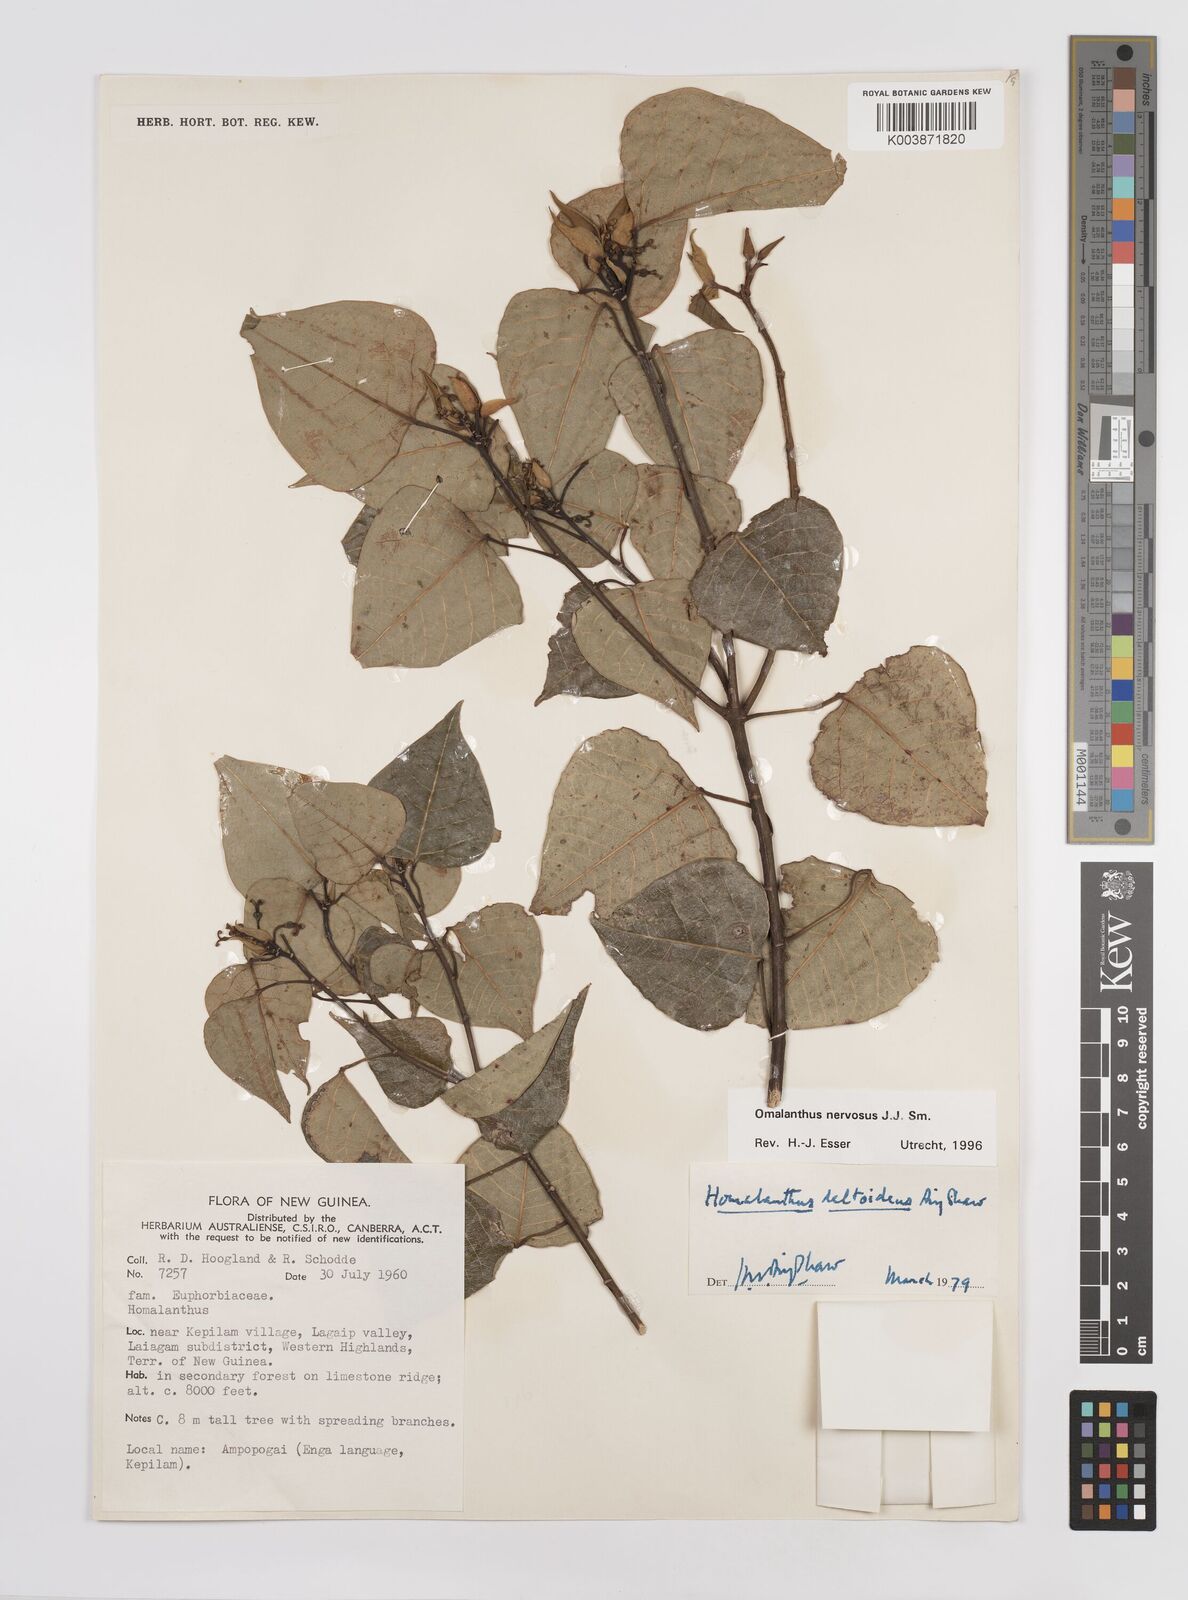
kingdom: Plantae
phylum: Tracheophyta
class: Magnoliopsida
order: Malpighiales
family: Euphorbiaceae
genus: Homalanthus
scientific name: Homalanthus nervosus
